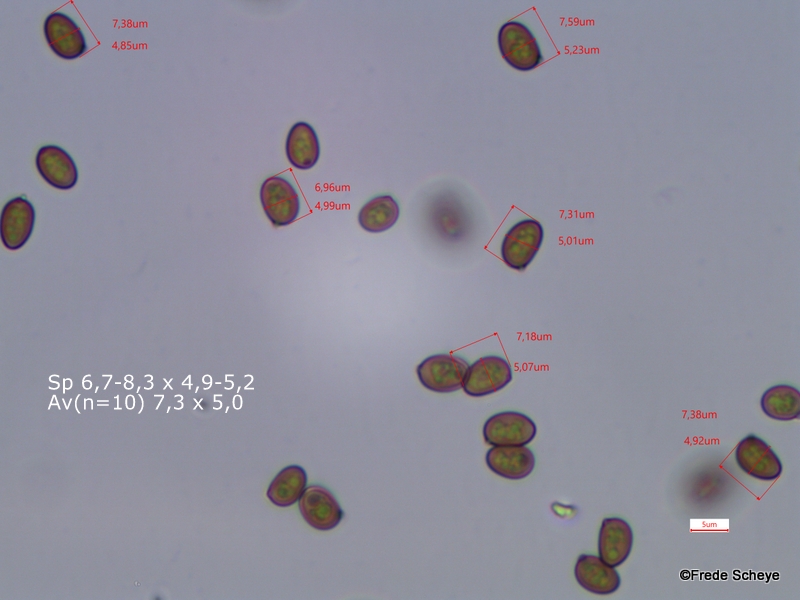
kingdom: Fungi
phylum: Basidiomycota
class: Agaricomycetes
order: Agaricales
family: Agaricaceae
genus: Agaricus
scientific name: Agaricus
